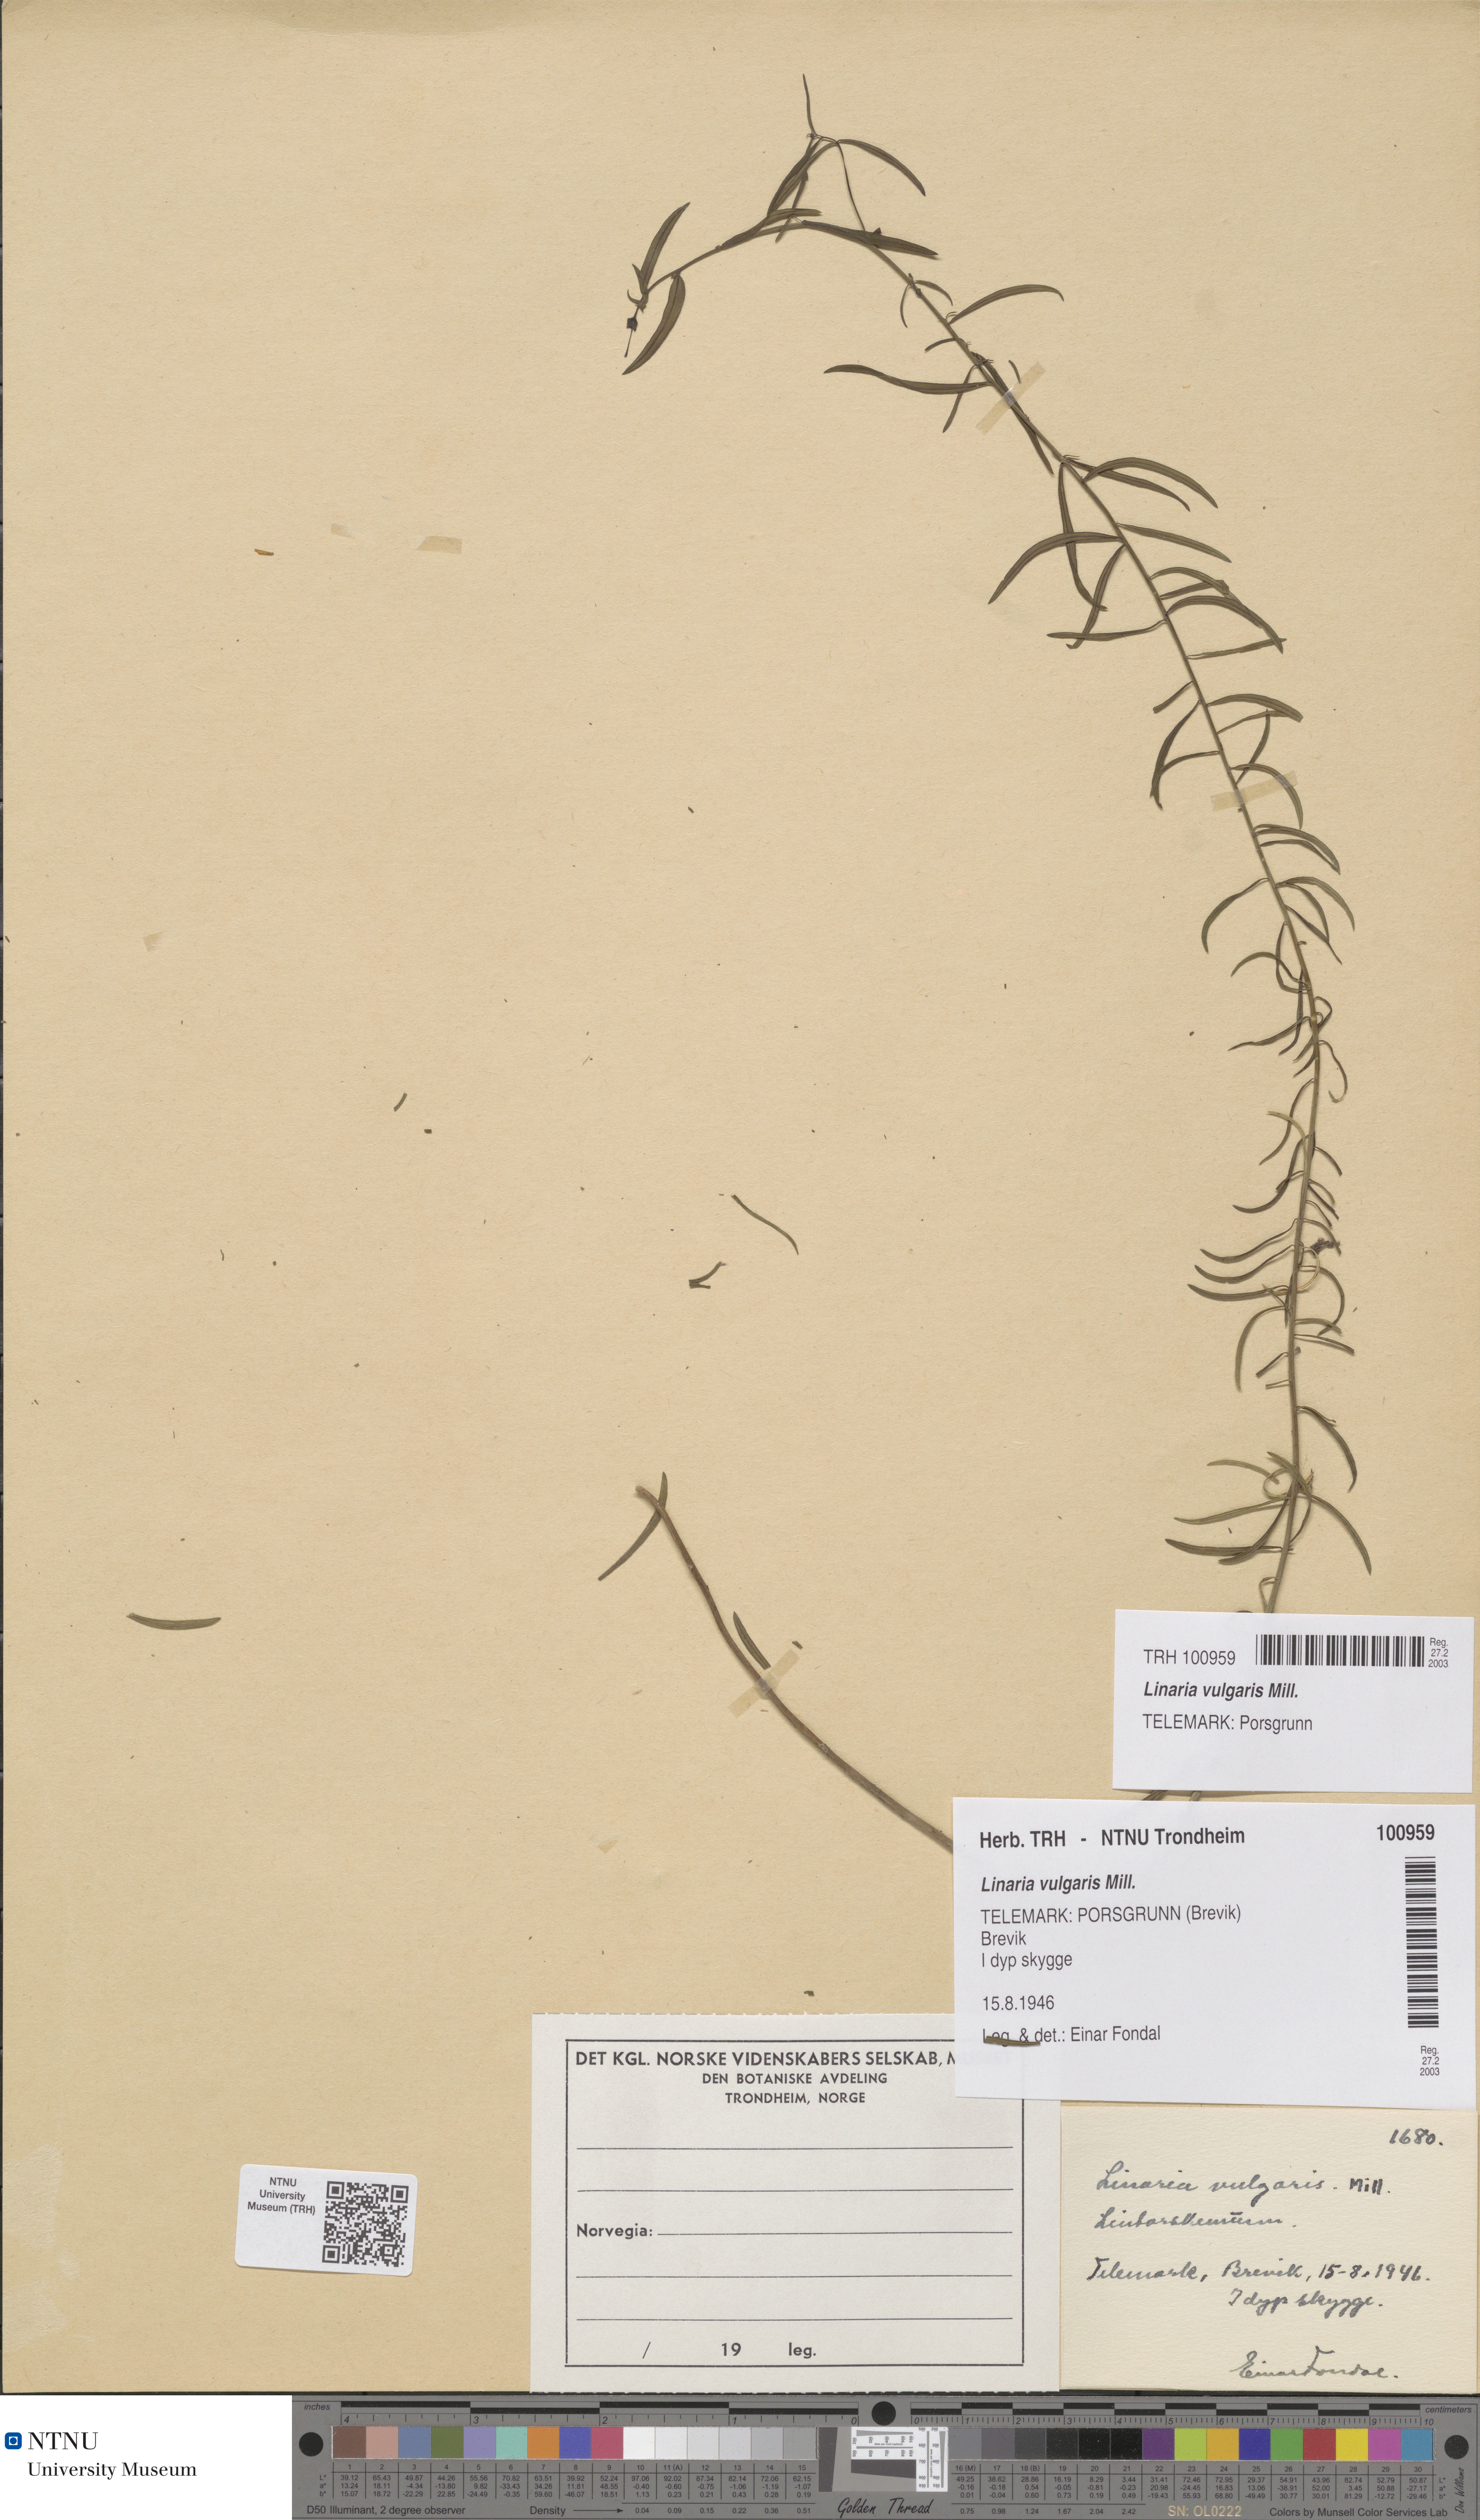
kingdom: Plantae
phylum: Tracheophyta
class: Magnoliopsida
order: Lamiales
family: Plantaginaceae
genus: Linaria
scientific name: Linaria vulgaris
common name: Butter and eggs
